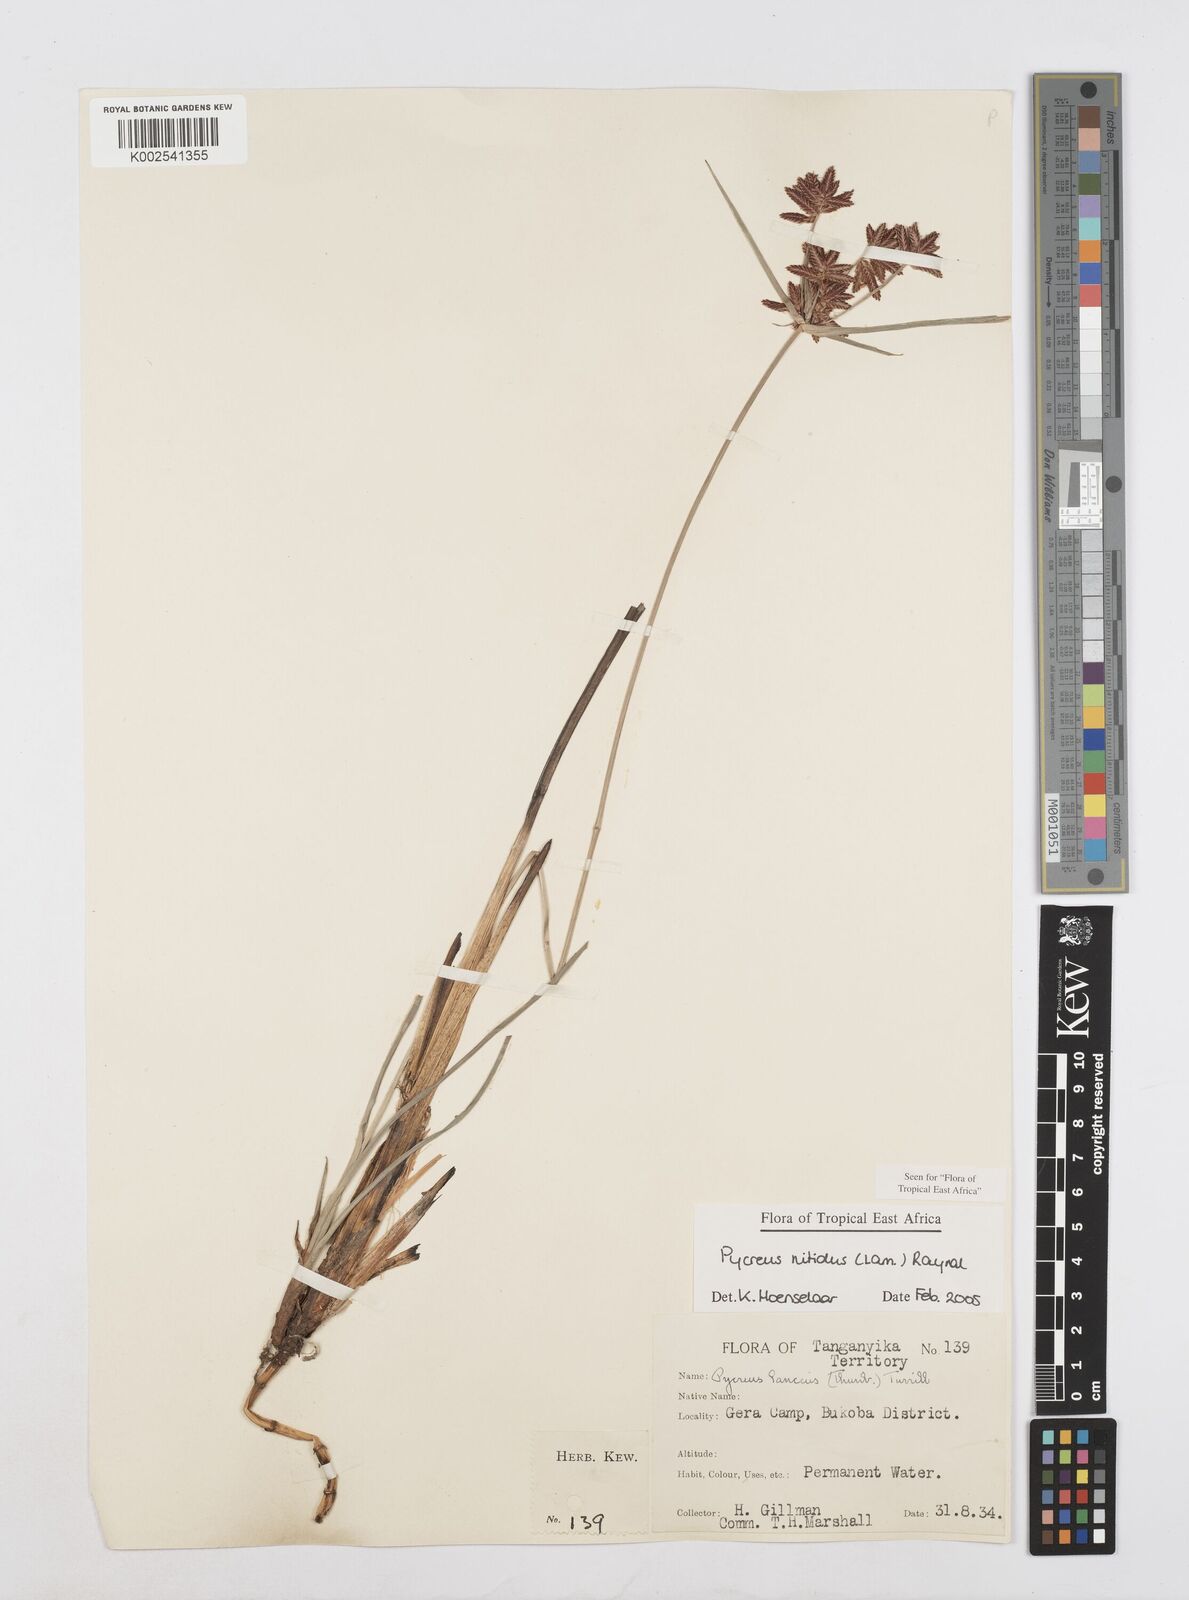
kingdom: Plantae
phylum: Tracheophyta
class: Liliopsida
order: Poales
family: Cyperaceae
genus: Cyperus
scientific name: Cyperus nitidus
